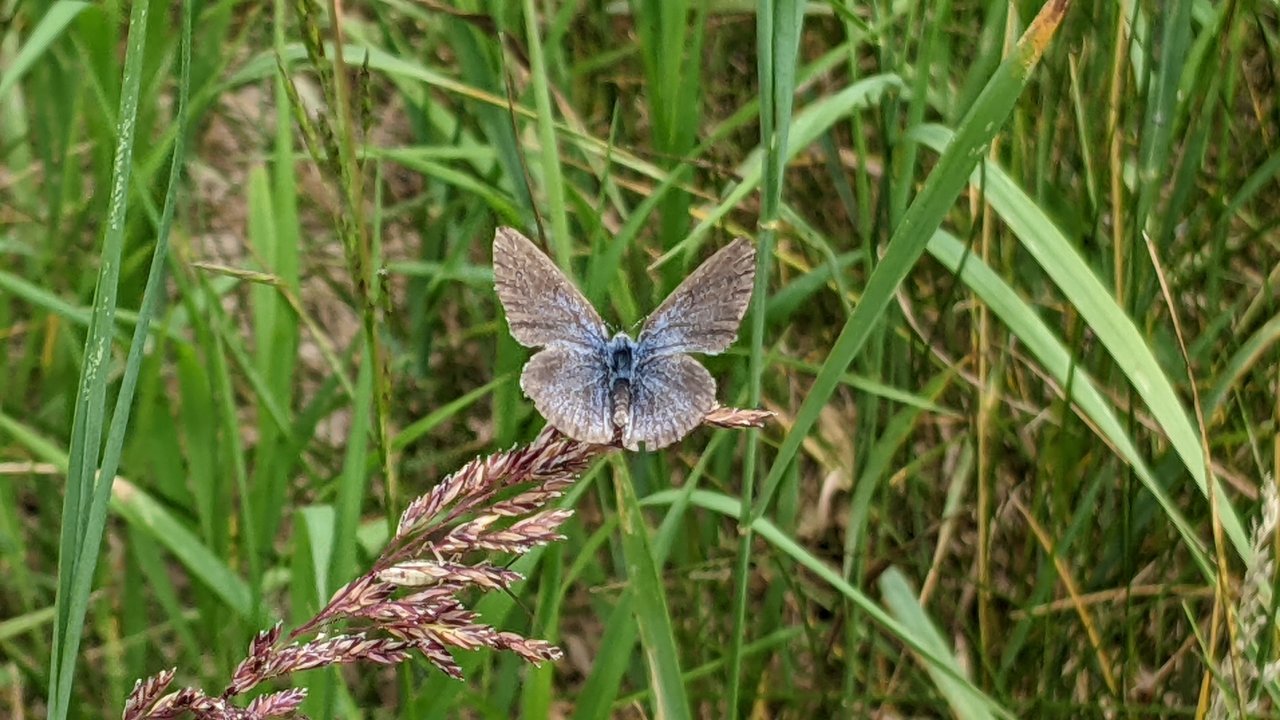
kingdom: Animalia
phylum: Arthropoda
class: Insecta
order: Lepidoptera
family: Lycaenidae
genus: Glaucopsyche
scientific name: Glaucopsyche lygdamus
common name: Silvery Blue
